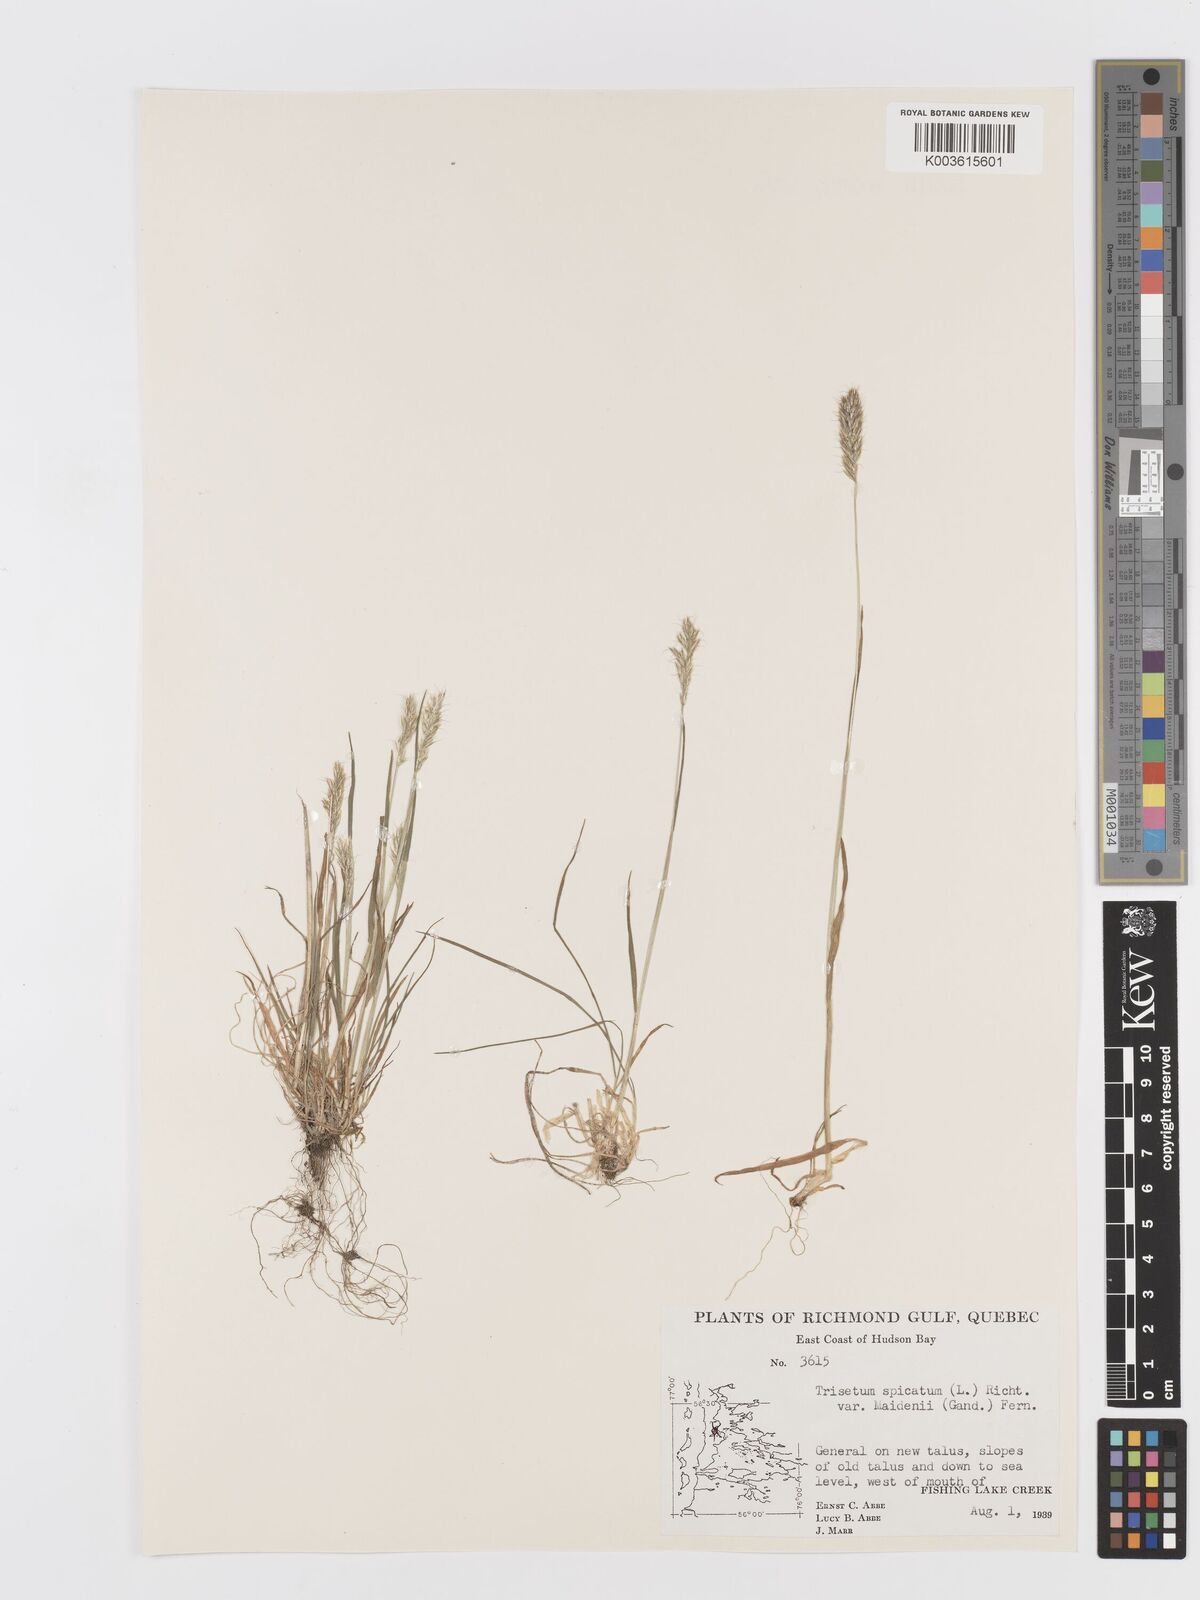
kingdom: Plantae
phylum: Tracheophyta
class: Liliopsida
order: Poales
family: Poaceae
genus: Koeleria
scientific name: Koeleria spicata
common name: Mountain trisetum
